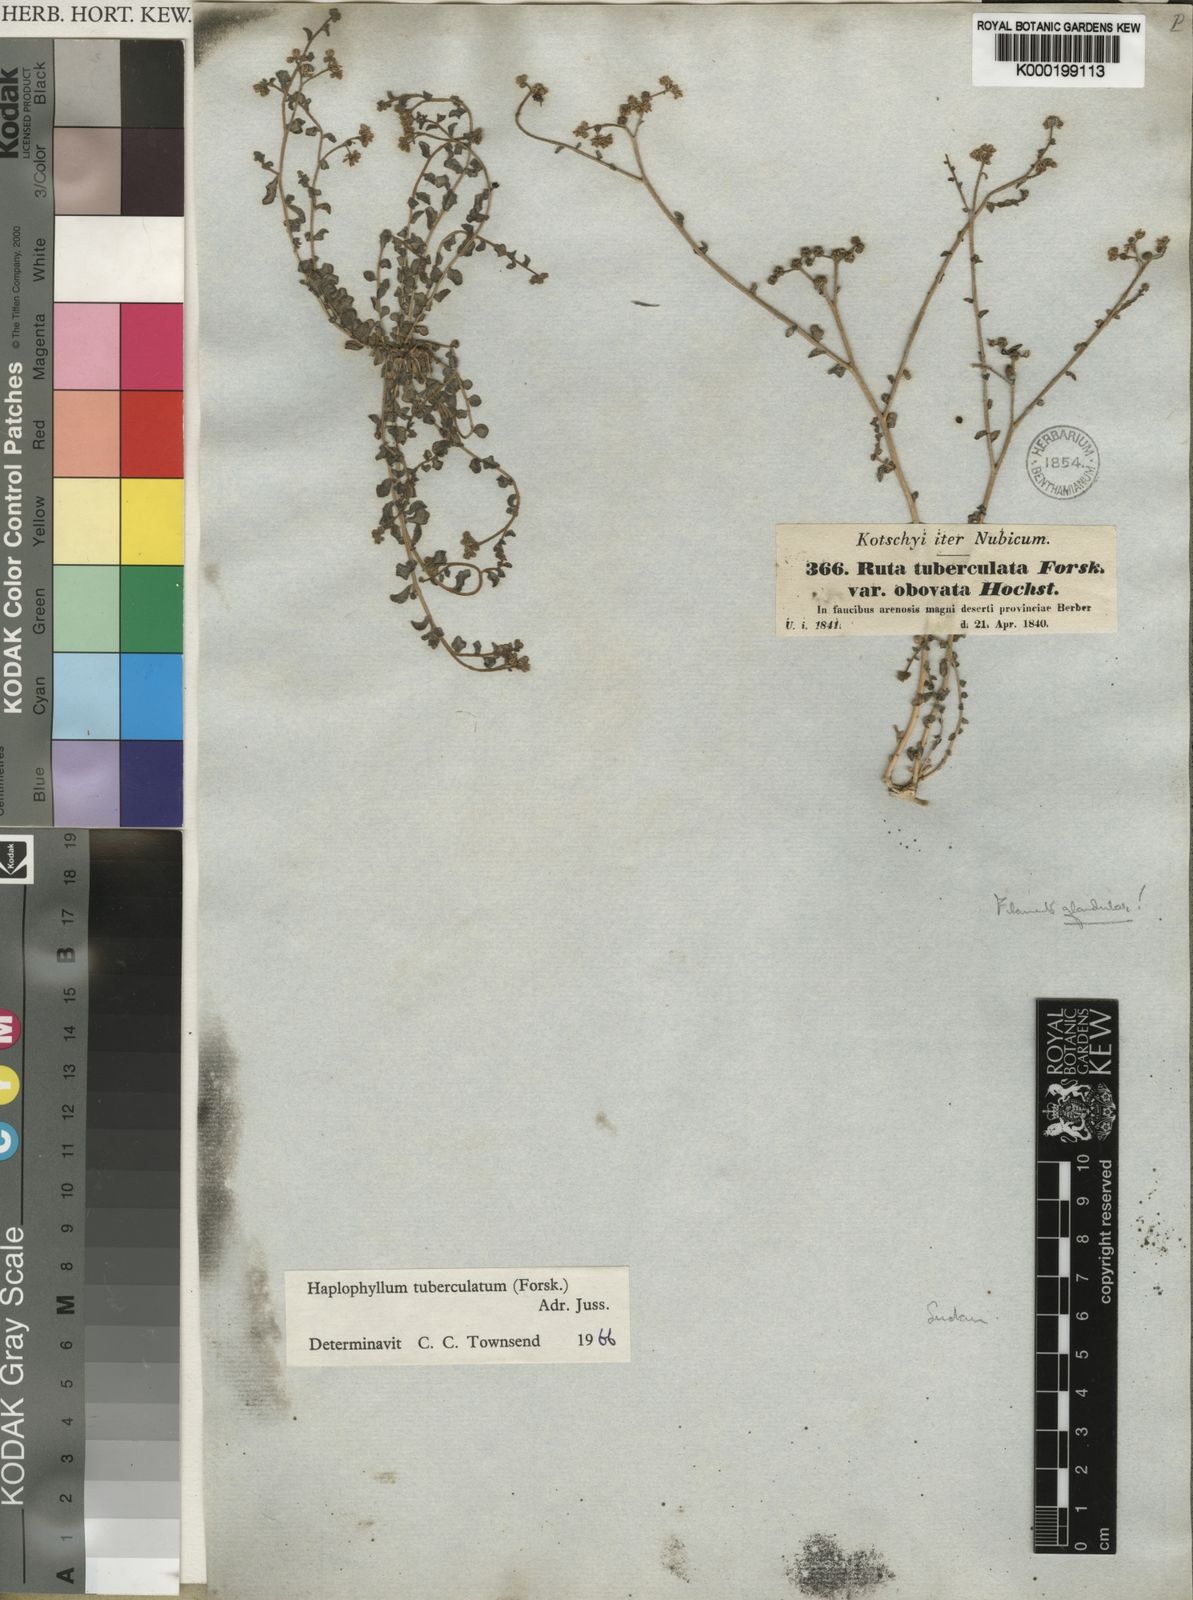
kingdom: Plantae
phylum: Tracheophyta
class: Magnoliopsida
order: Sapindales
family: Rutaceae
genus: Haplophyllum
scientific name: Haplophyllum tuberculatum
